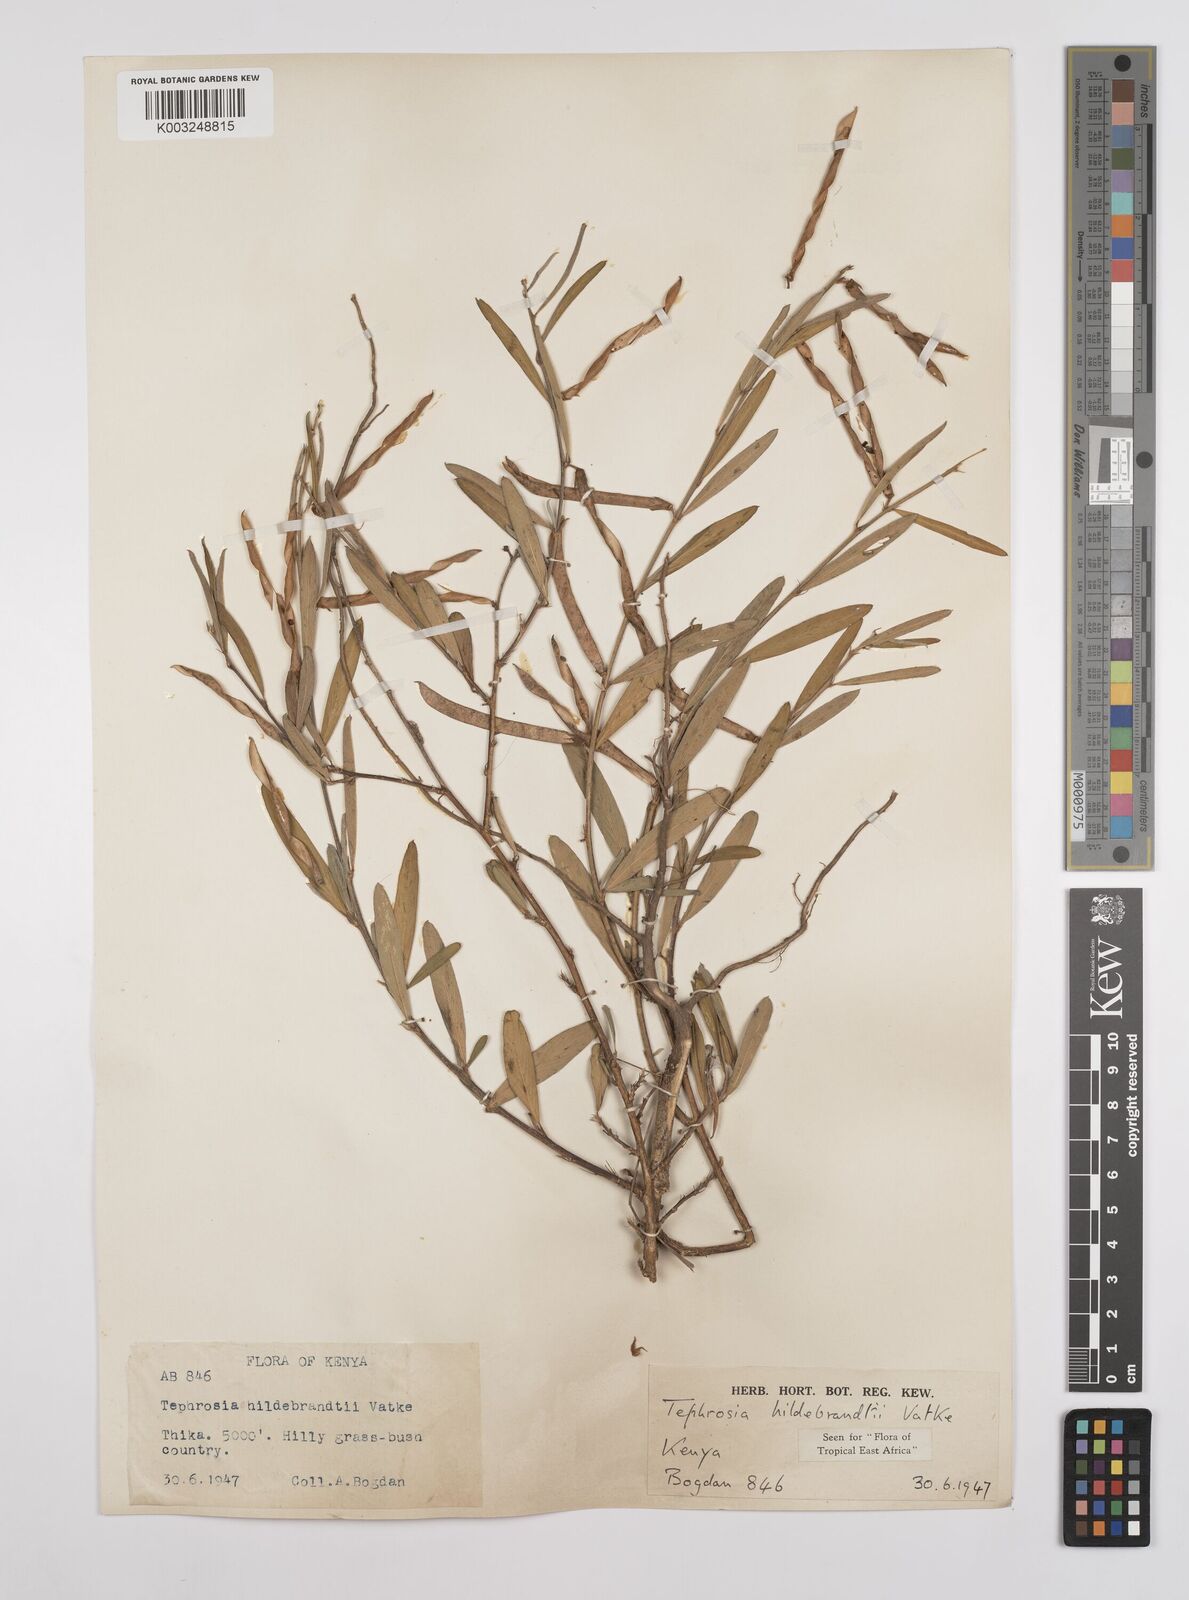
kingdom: Plantae
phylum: Tracheophyta
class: Magnoliopsida
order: Fabales
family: Fabaceae
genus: Tephrosia
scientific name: Tephrosia hildebrandtii
